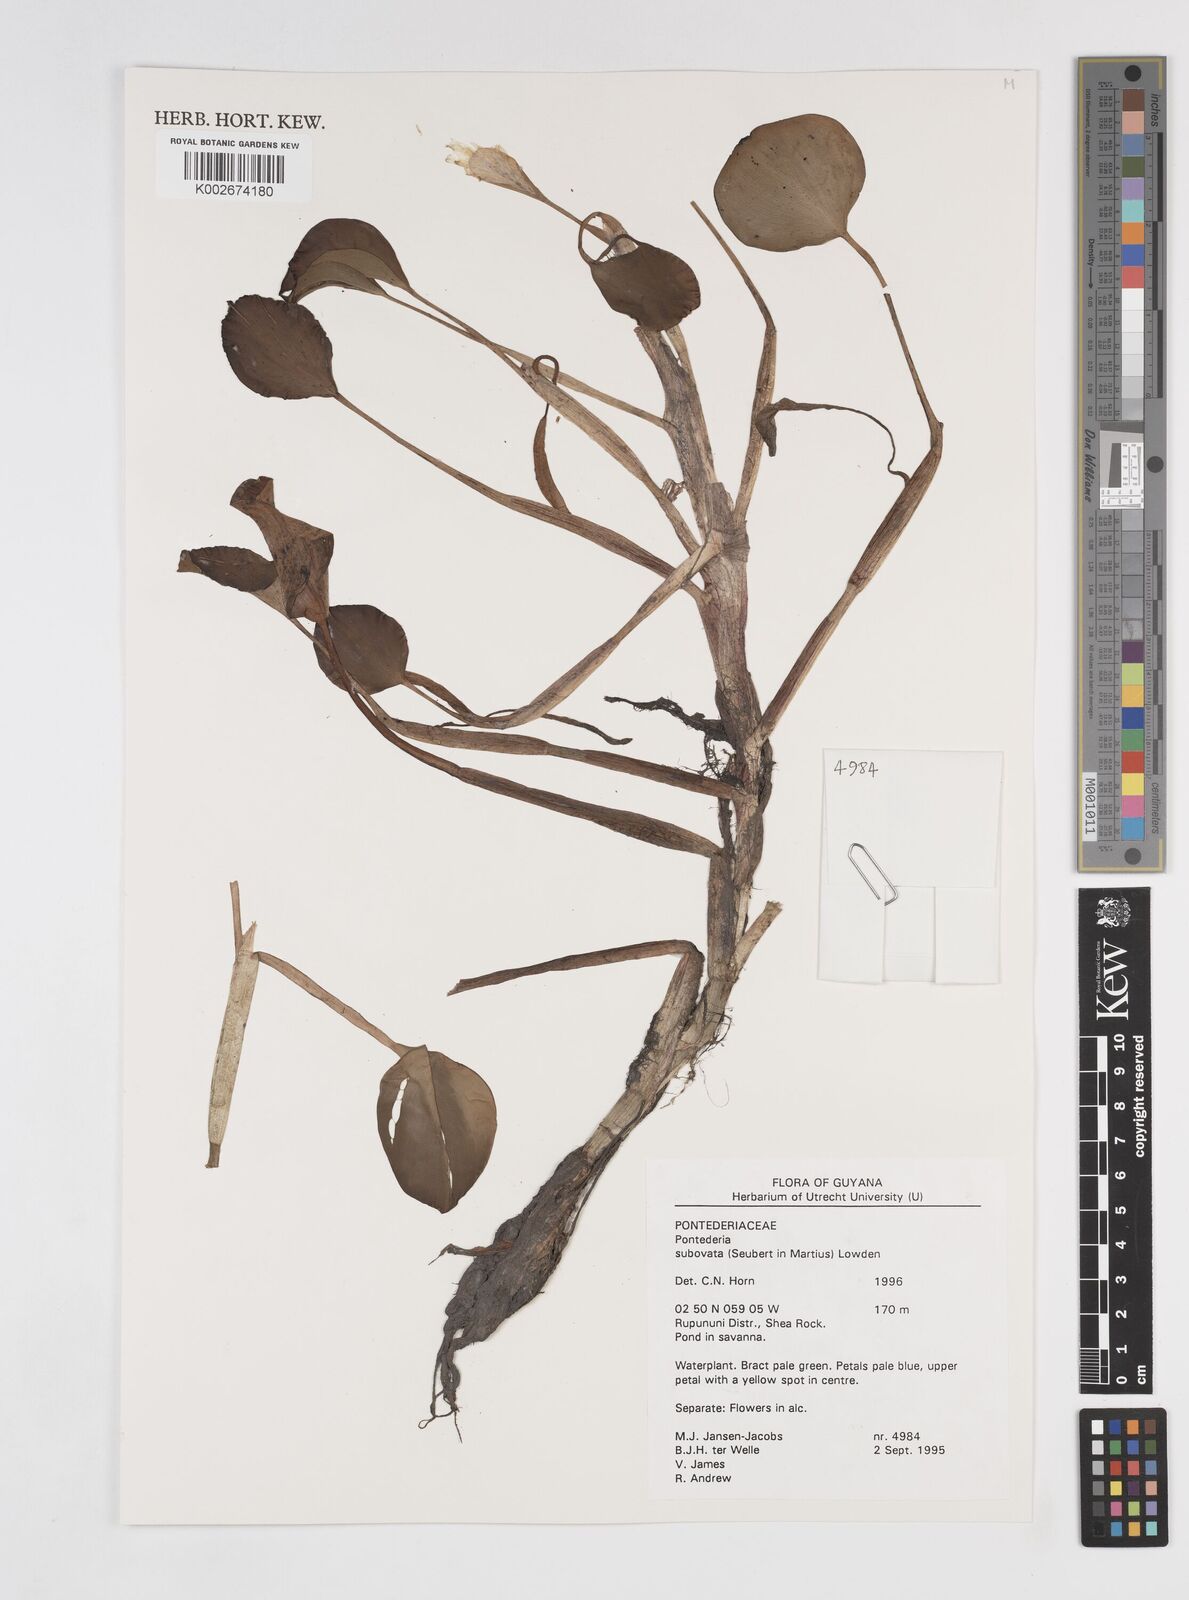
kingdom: Plantae
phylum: Tracheophyta
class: Liliopsida
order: Commelinales
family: Pontederiaceae
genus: Pontederia
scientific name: Pontederia subovata
